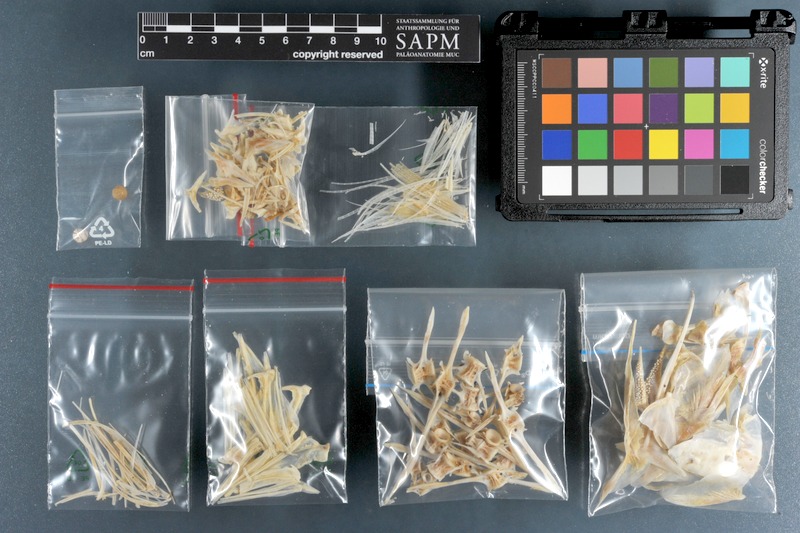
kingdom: Animalia
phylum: Chordata
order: Perciformes
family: Carangidae
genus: Alectis
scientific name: Alectis indica
